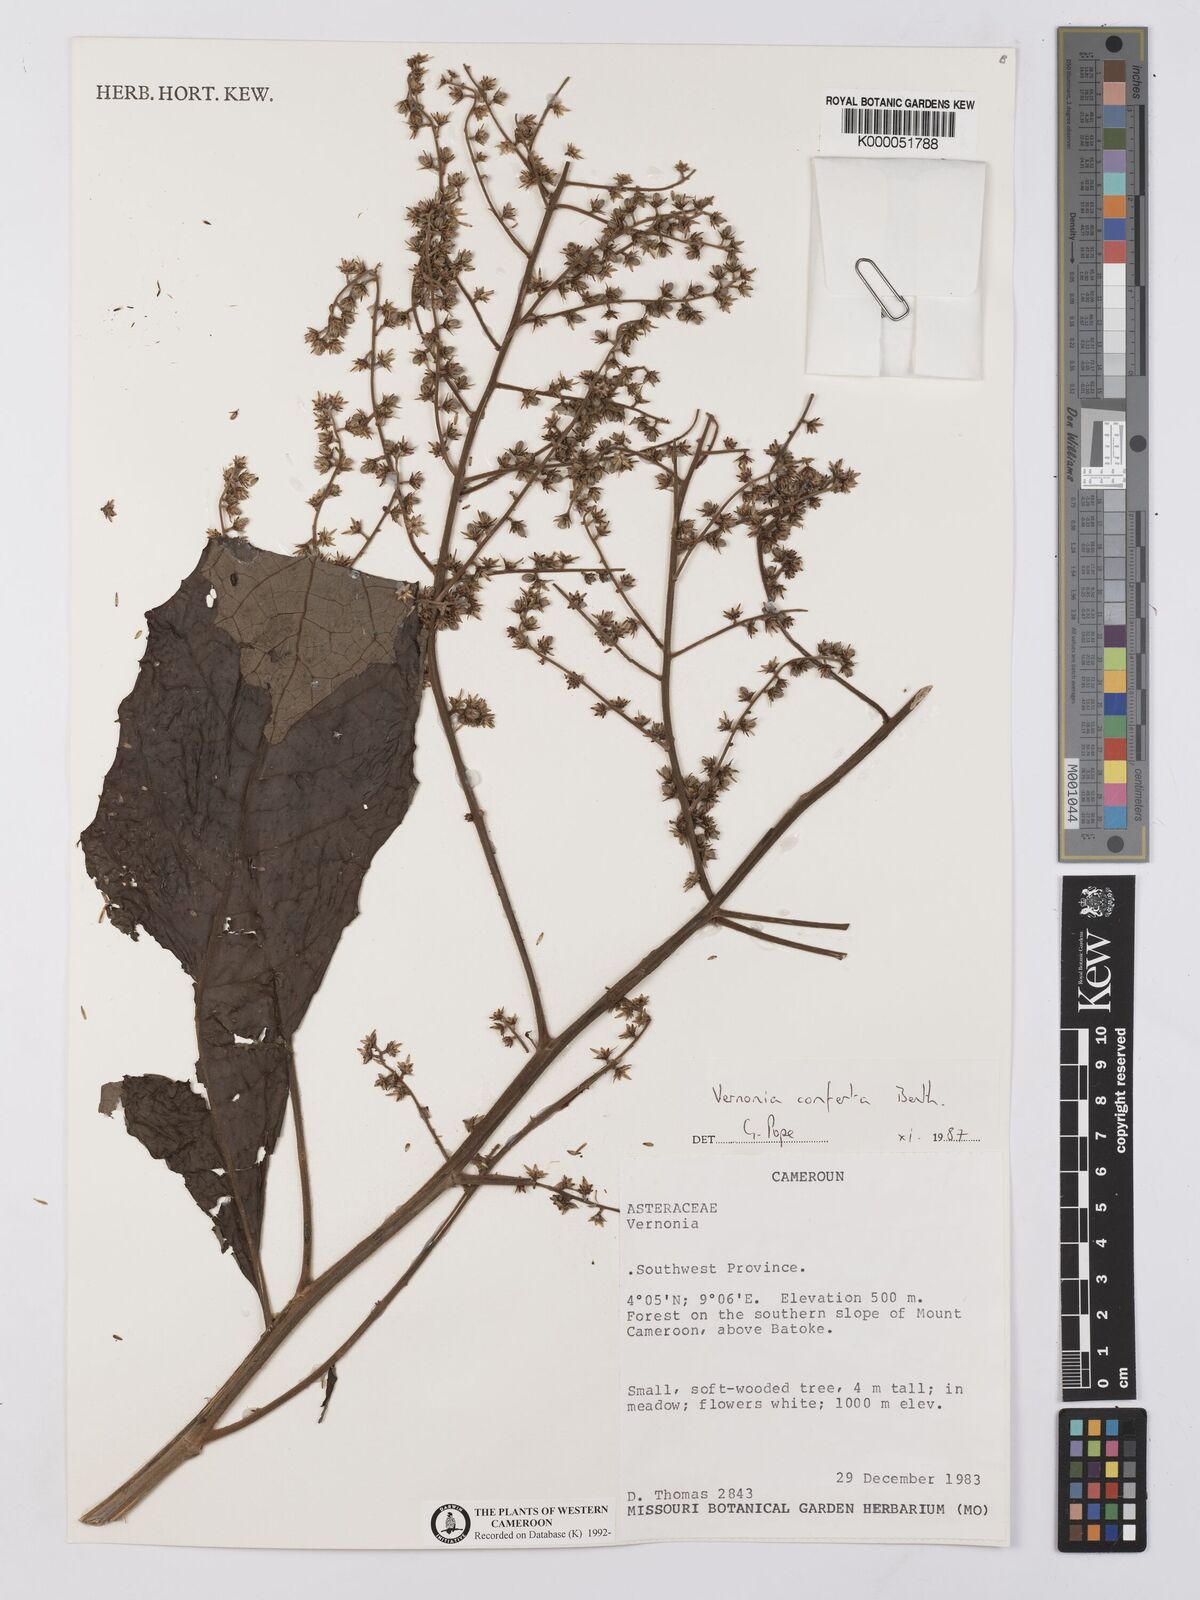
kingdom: Plantae
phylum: Tracheophyta
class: Magnoliopsida
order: Asterales
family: Asteraceae
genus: Brenandendron
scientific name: Brenandendron donianum
